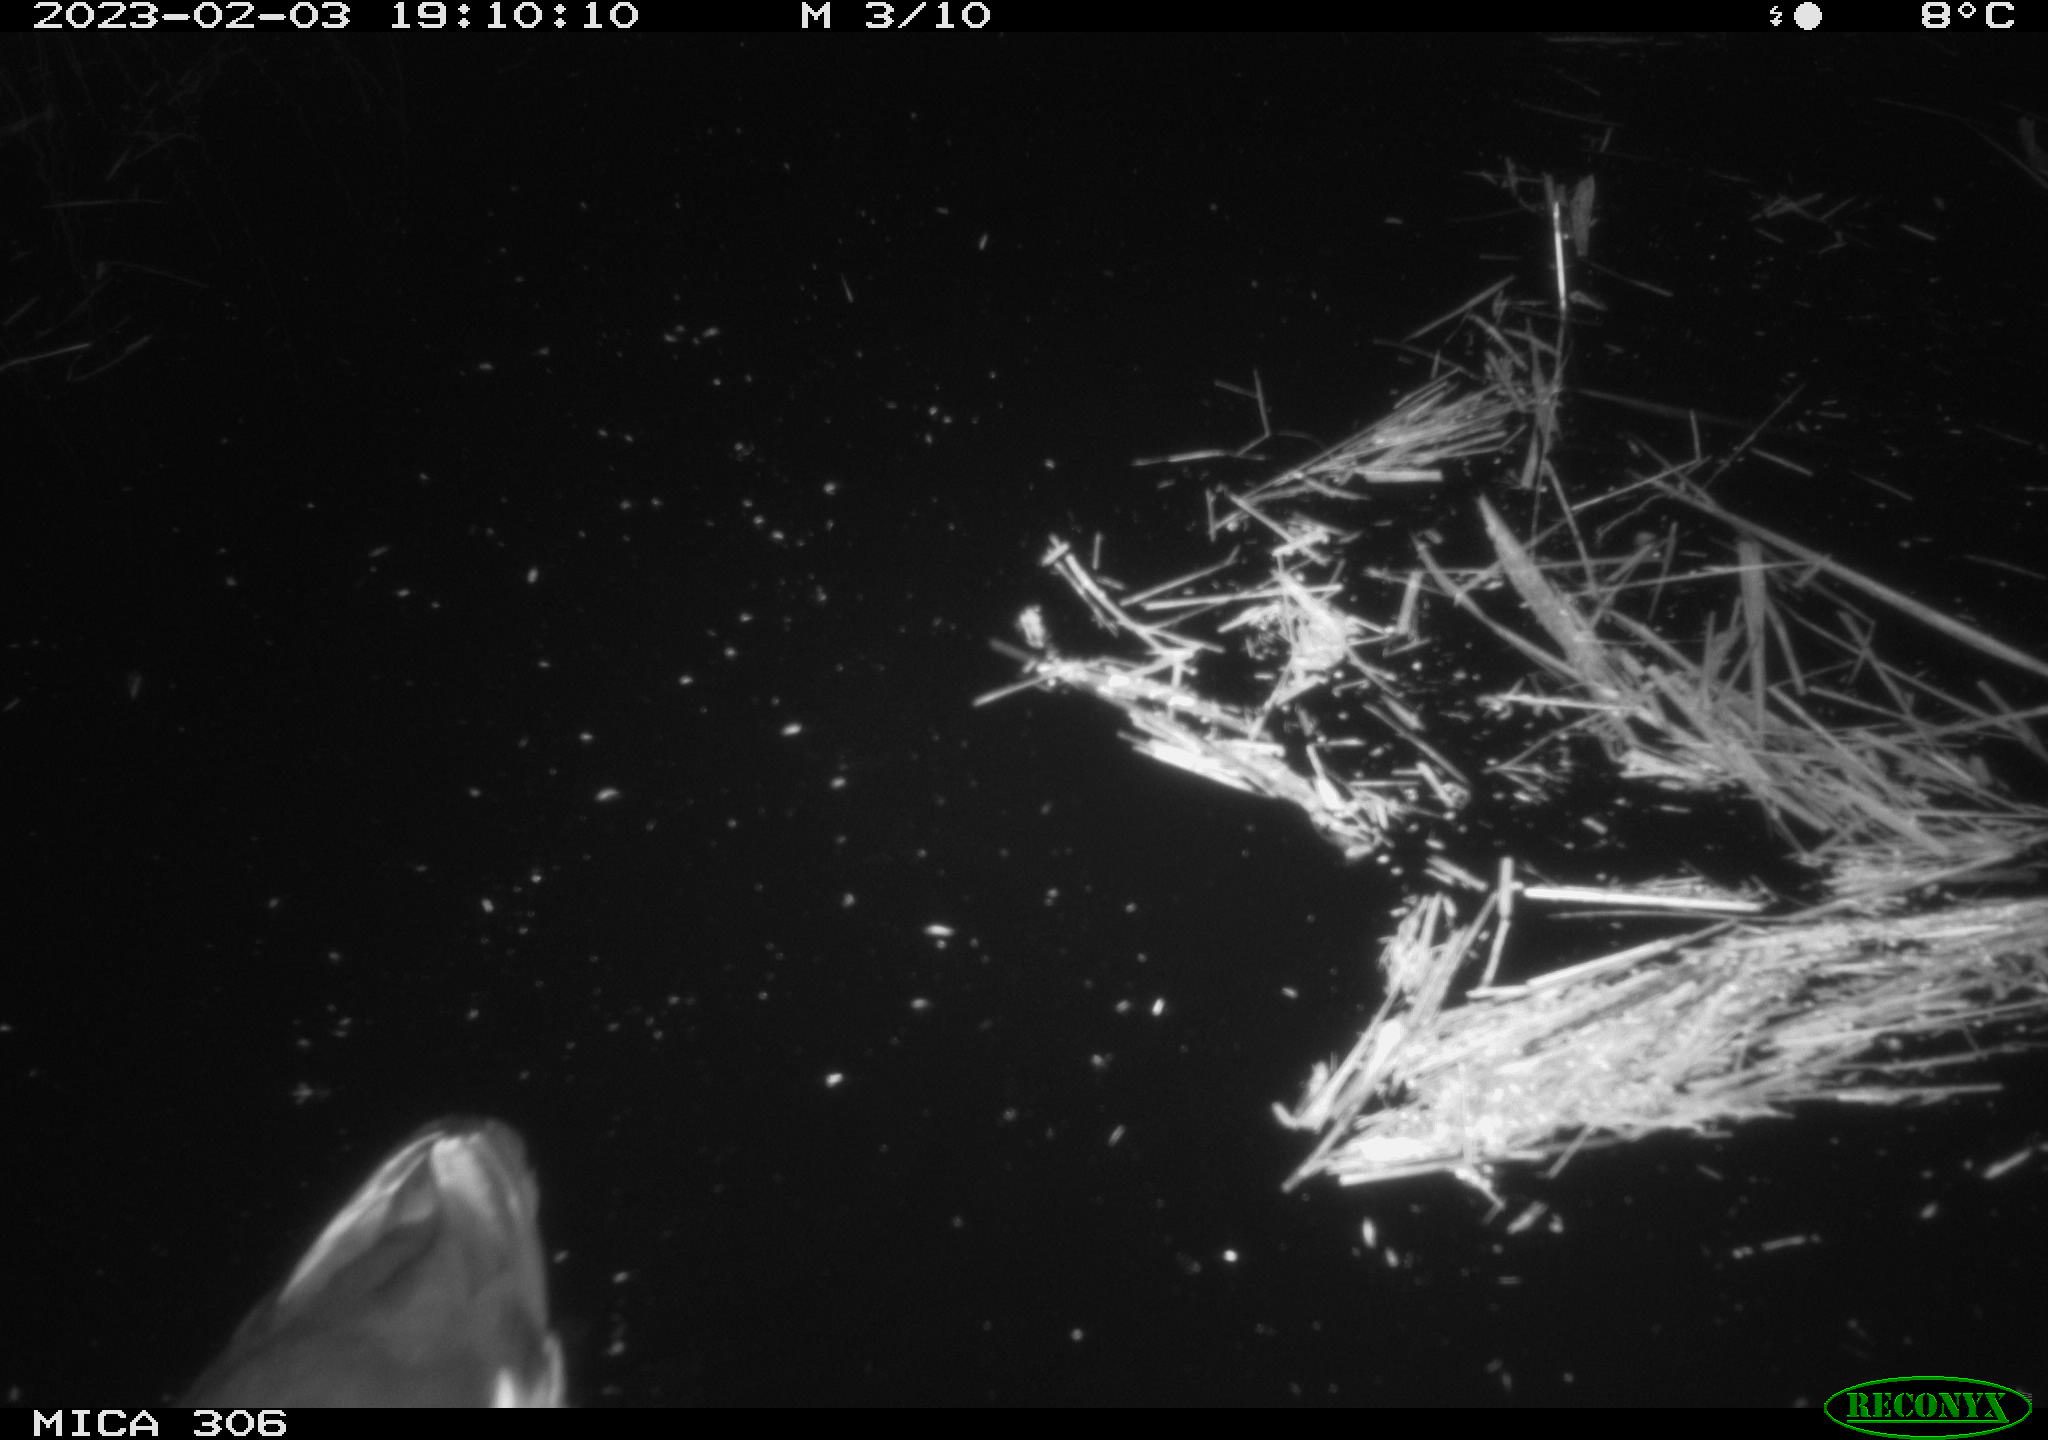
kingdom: Animalia
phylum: Chordata
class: Aves
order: Anseriformes
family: Anatidae
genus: Anas
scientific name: Anas
